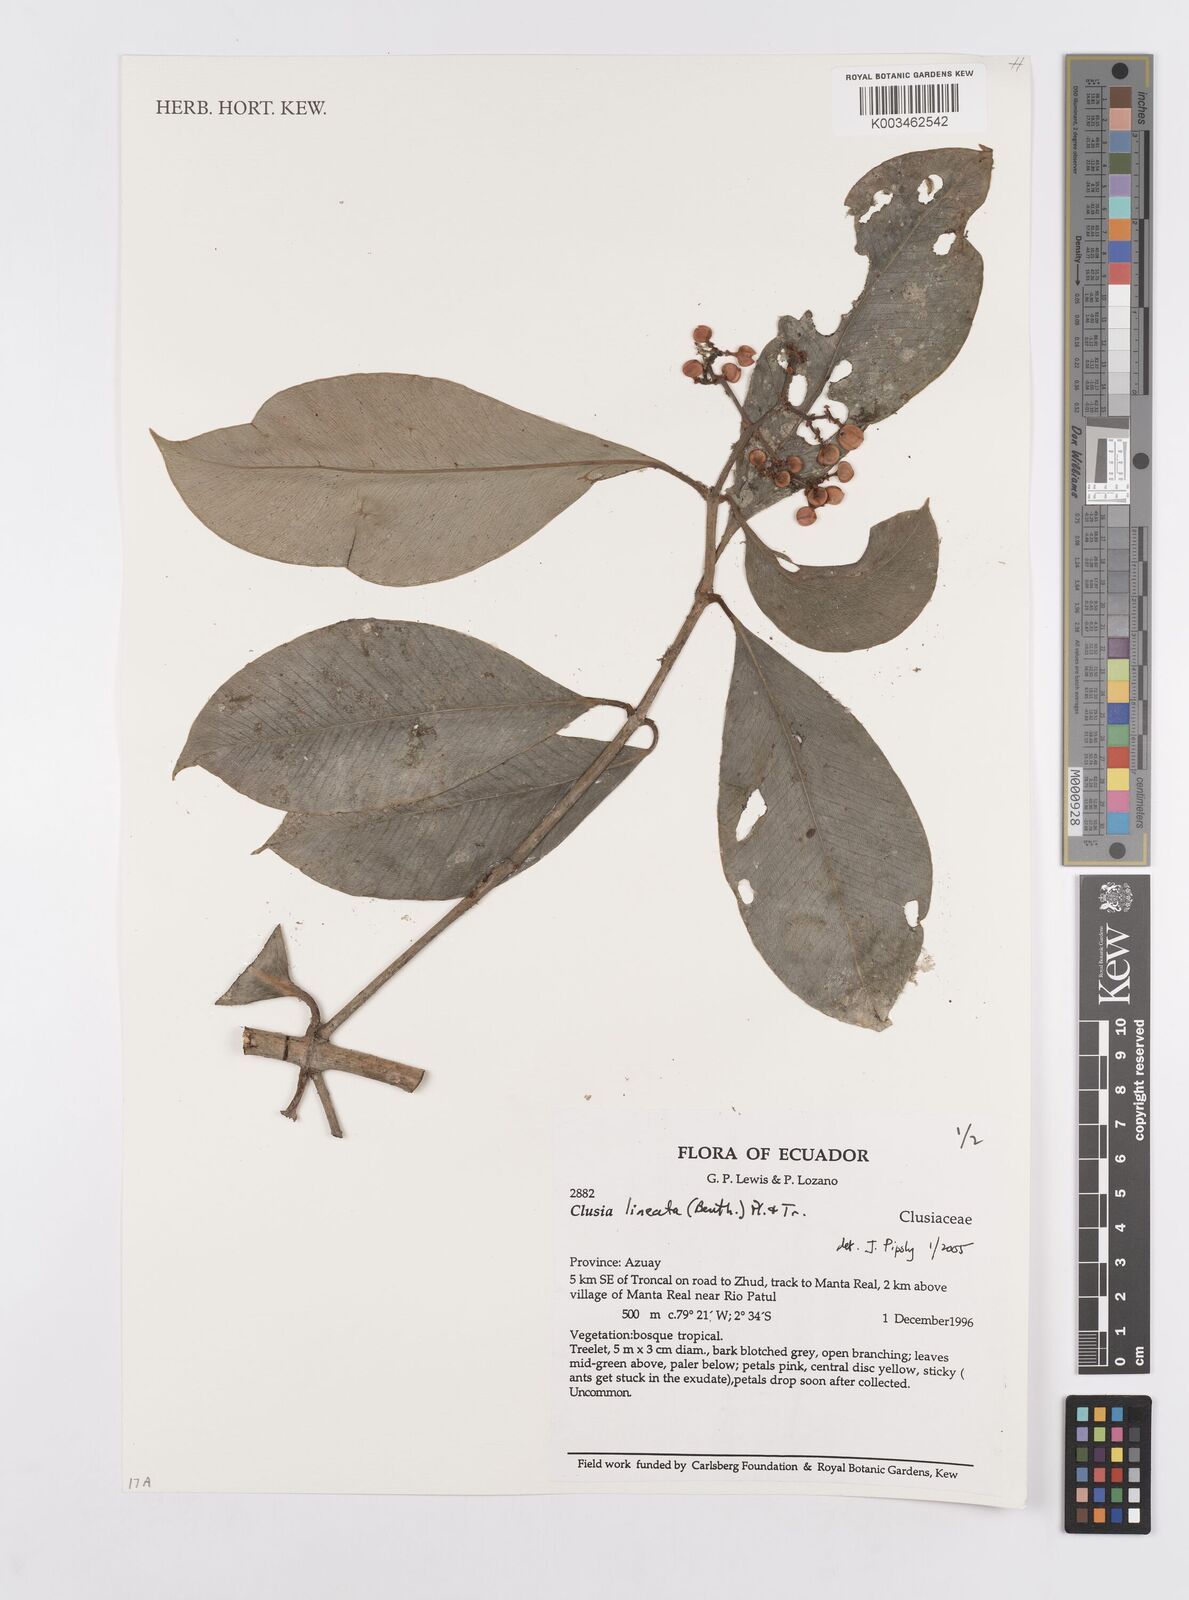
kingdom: Plantae
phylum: Tracheophyta
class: Magnoliopsida
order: Malpighiales
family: Clusiaceae
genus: Clusia
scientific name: Clusia lineata
